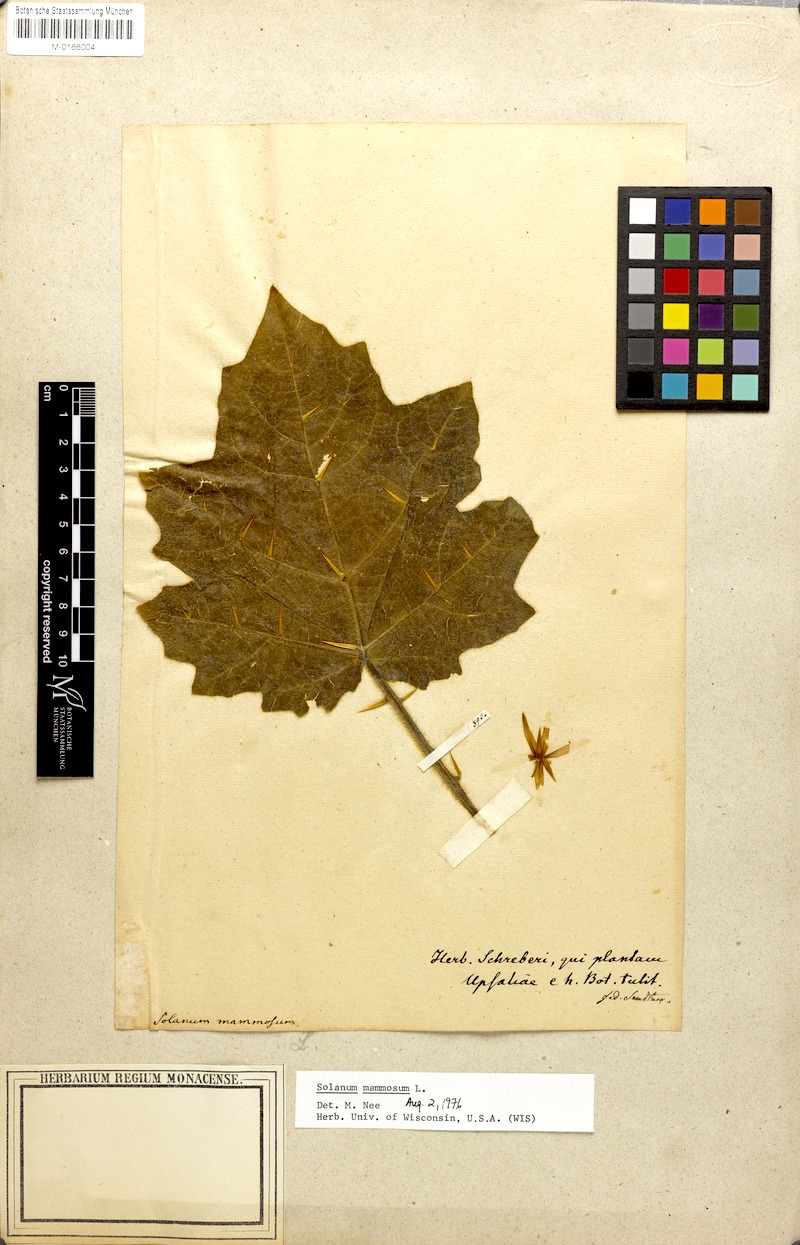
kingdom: Plantae
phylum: Tracheophyta
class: Magnoliopsida
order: Solanales
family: Solanaceae
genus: Solanum
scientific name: Solanum mammosum
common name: Nipple fruit
